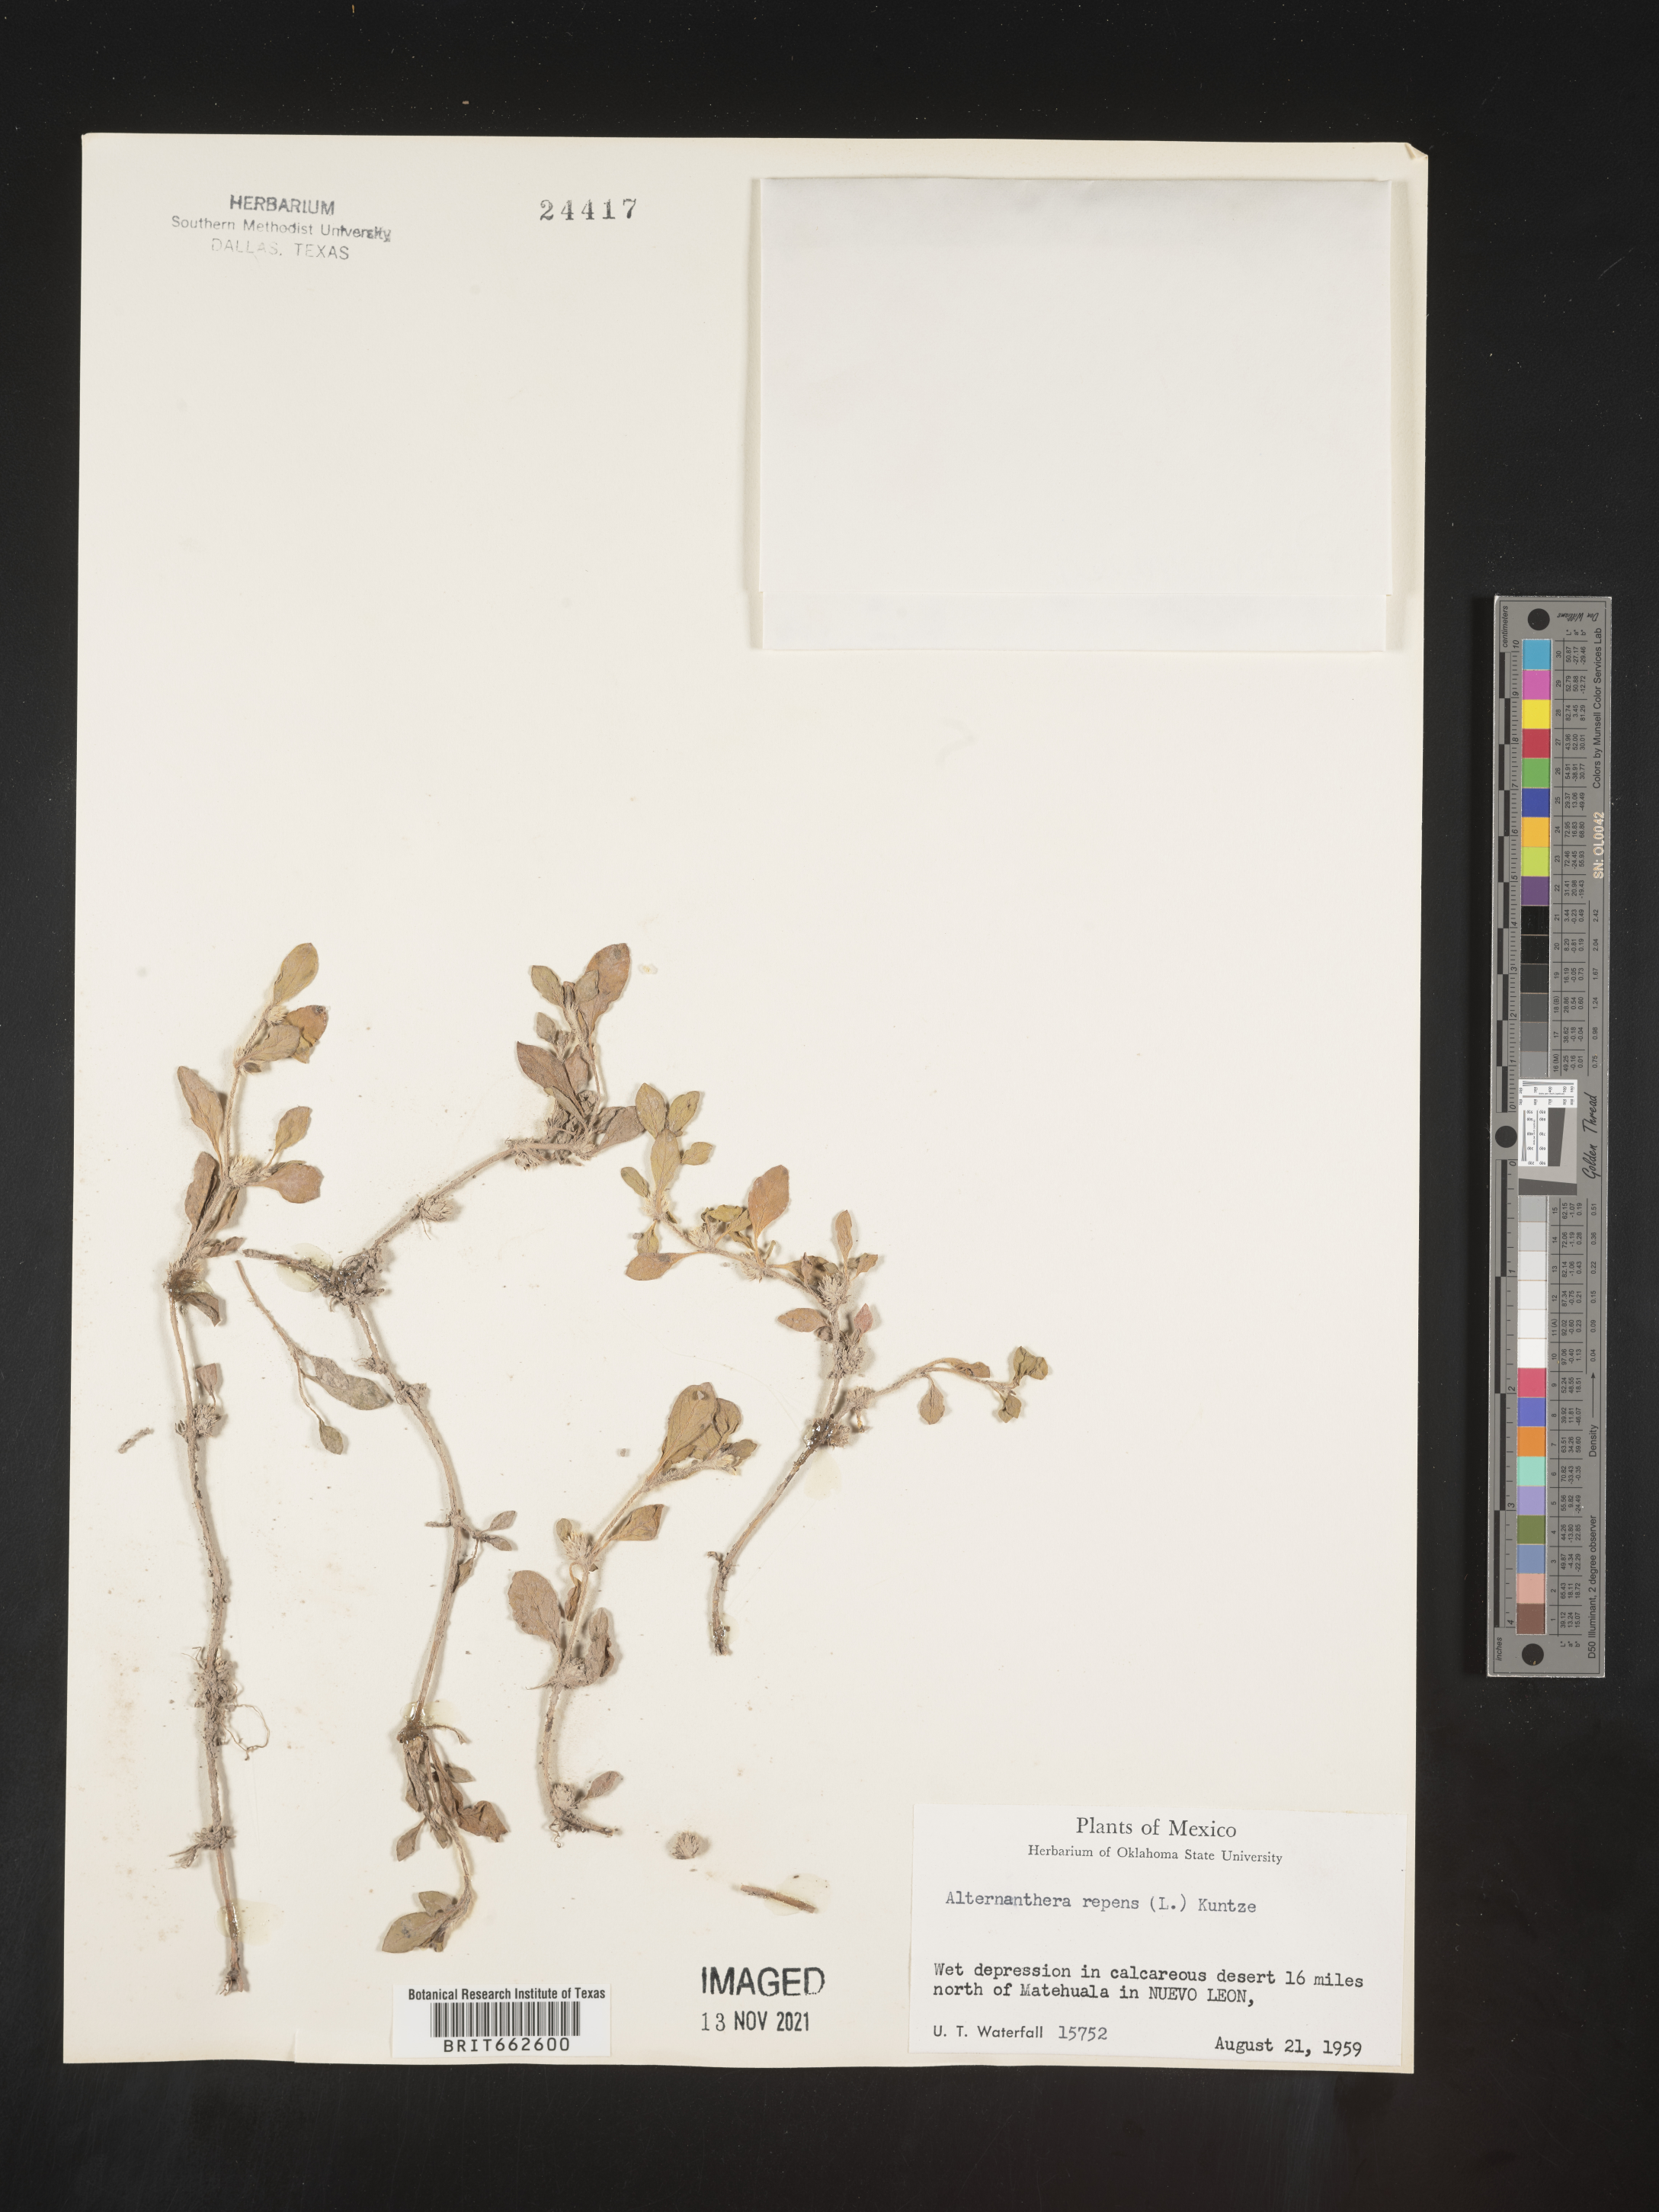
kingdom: Plantae
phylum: Tracheophyta
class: Magnoliopsida
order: Caryophyllales
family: Amaranthaceae
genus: Alternanthera
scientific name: Alternanthera
